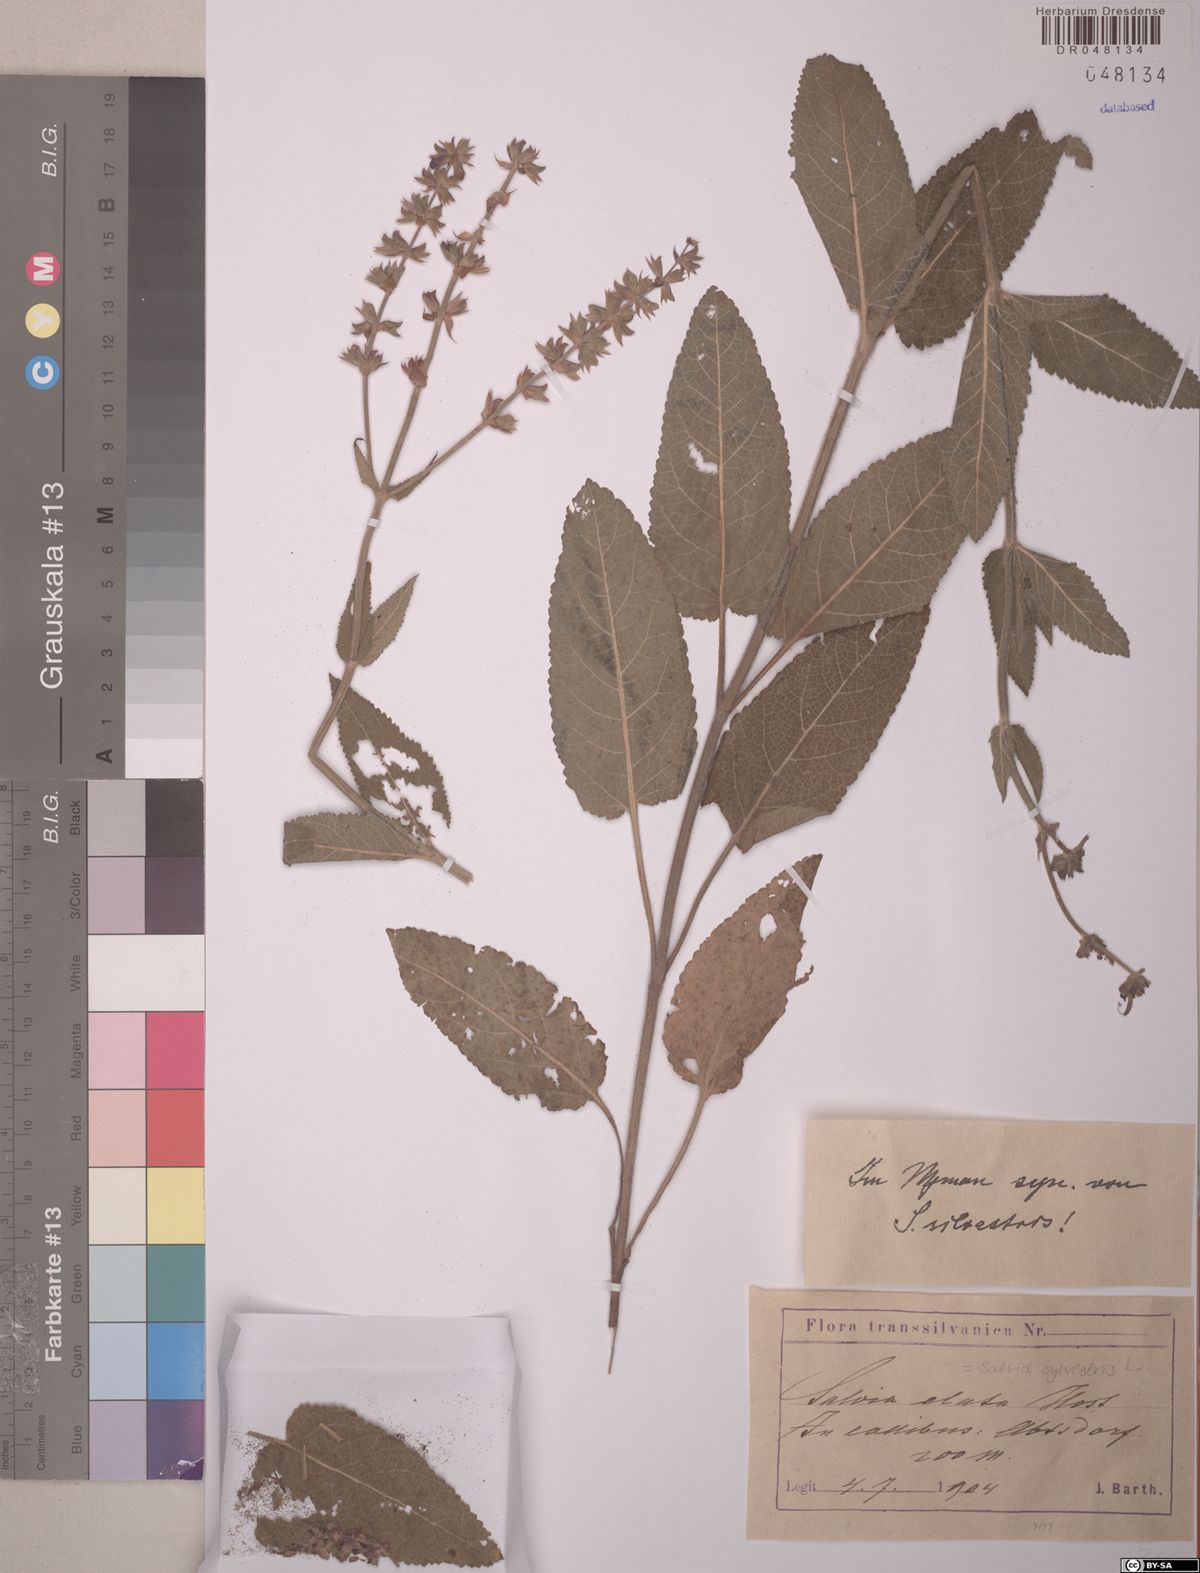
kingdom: Plantae
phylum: Tracheophyta
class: Magnoliopsida
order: Lamiales
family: Lamiaceae
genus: Salvia
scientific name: Salvia sylvestris
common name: Woodland sage
